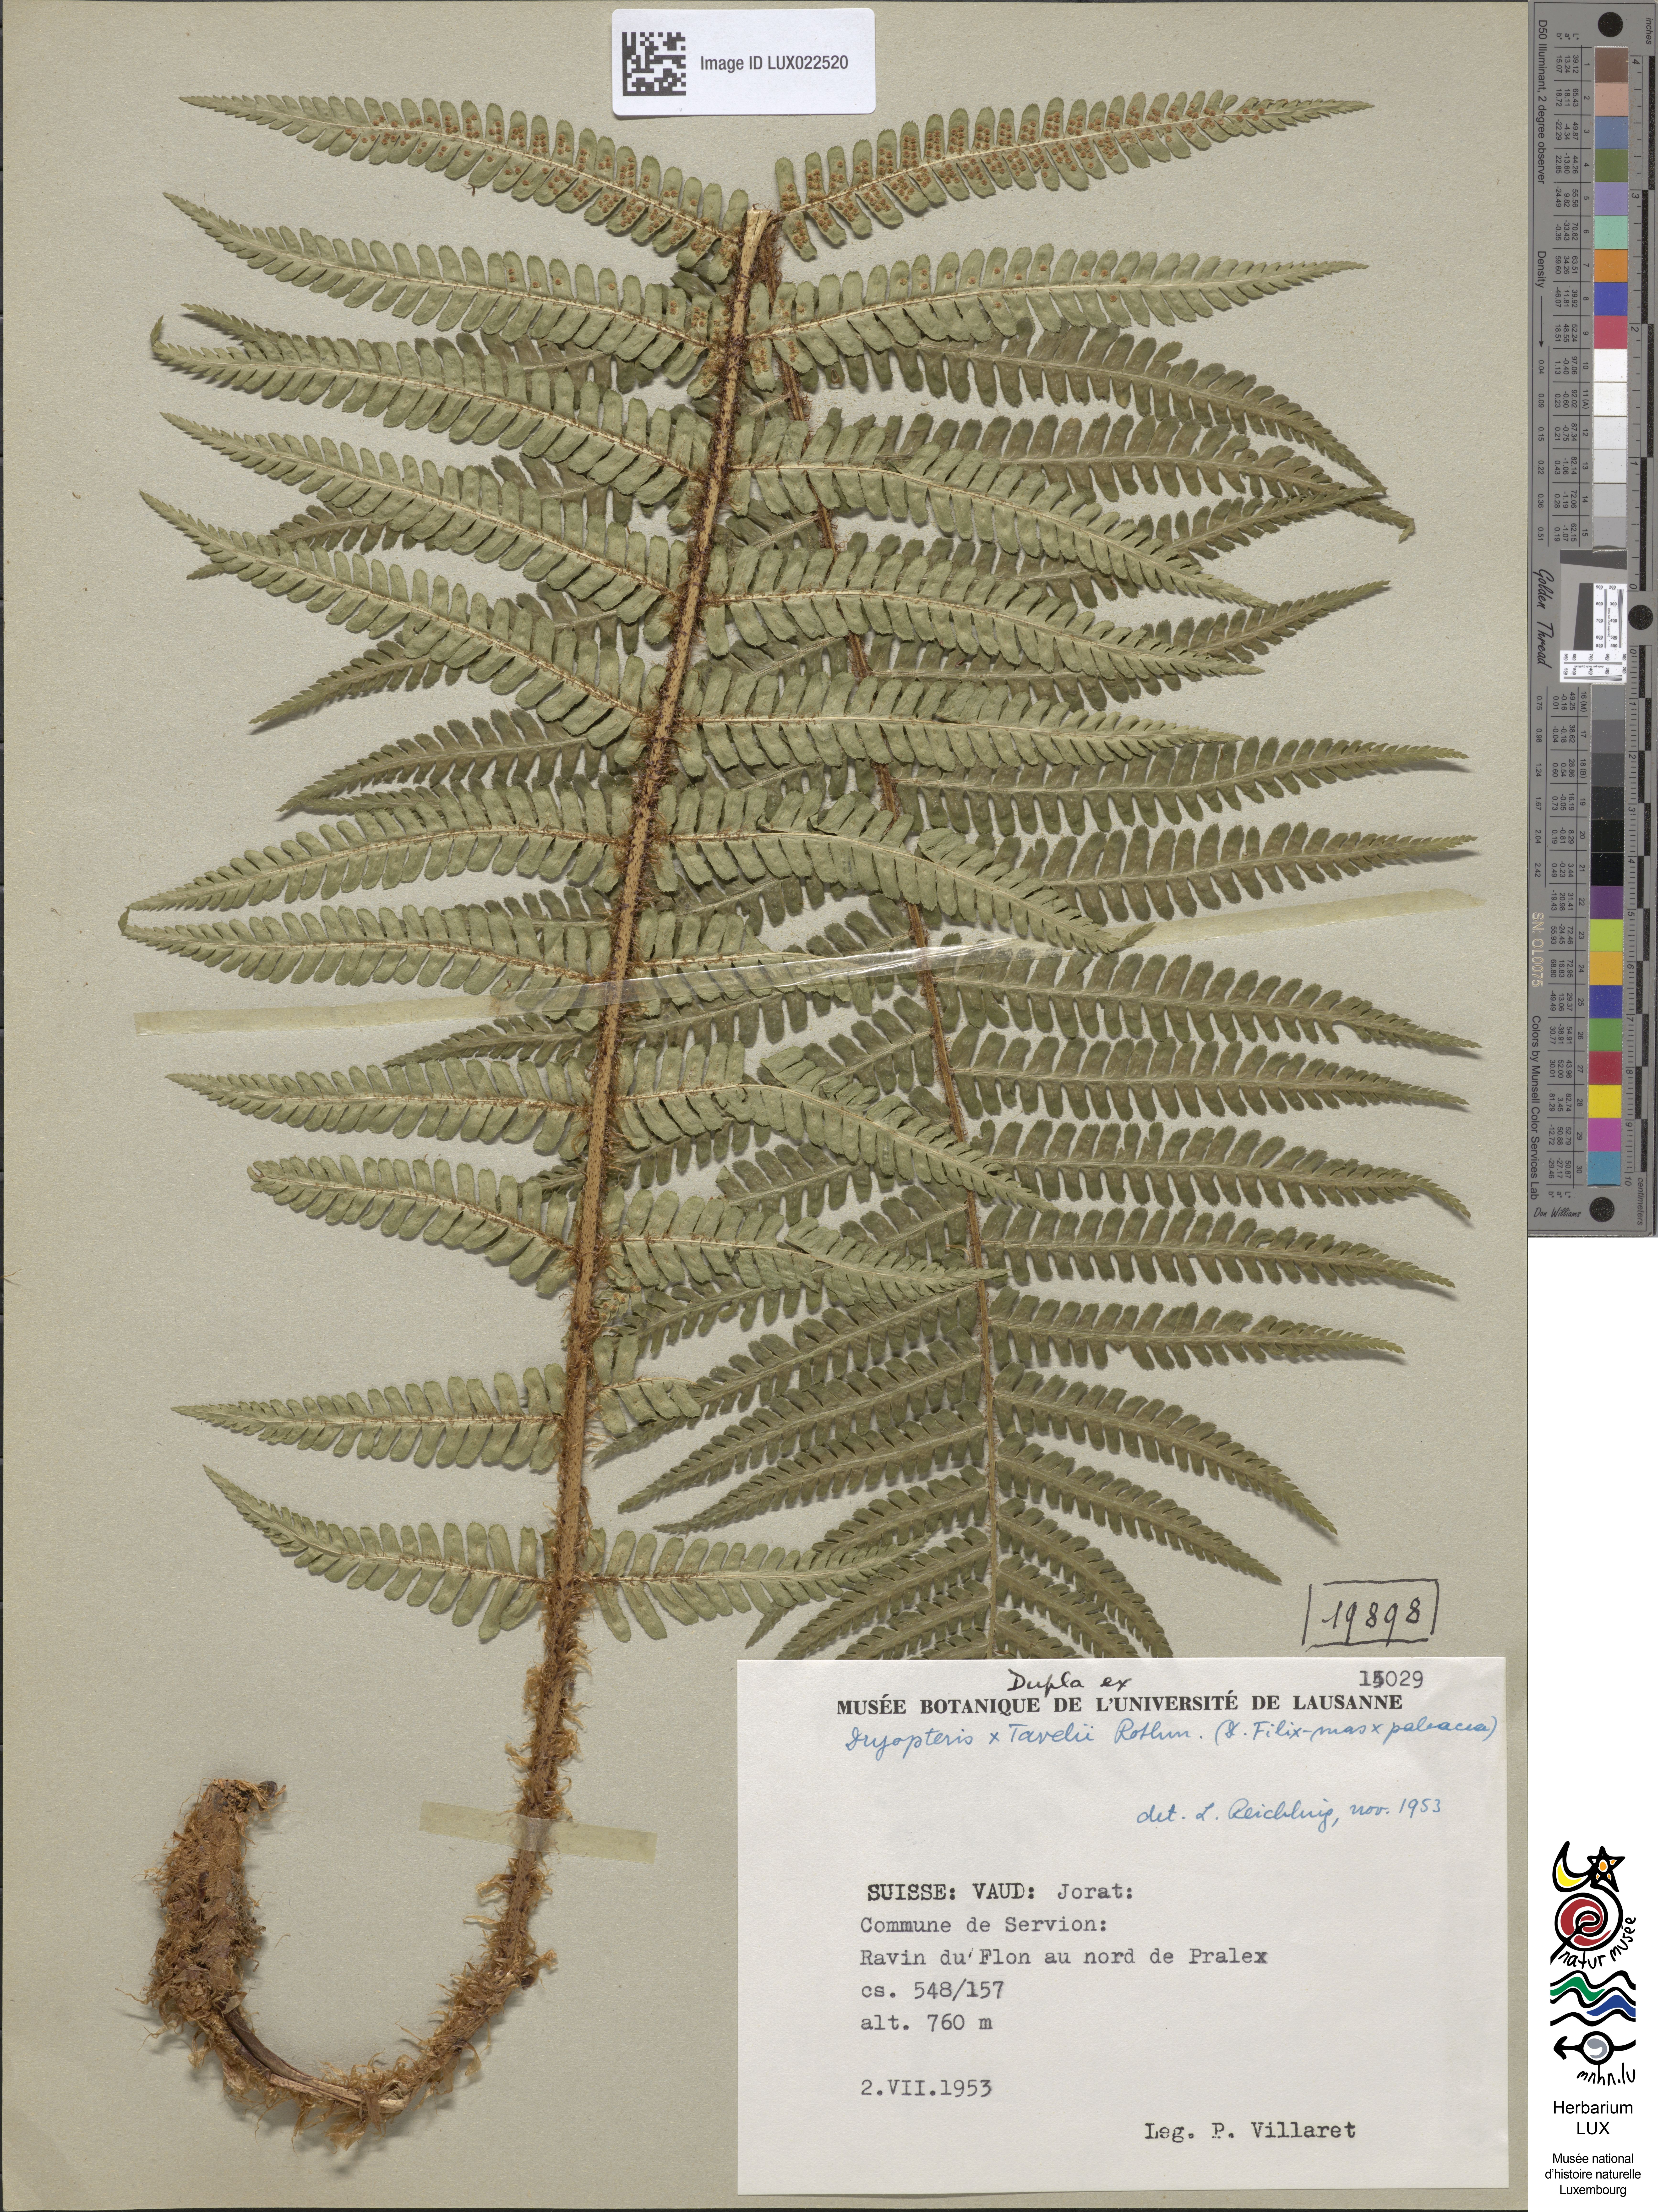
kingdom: Plantae
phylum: Tracheophyta
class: Polypodiopsida
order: Polypodiales
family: Dryopteridaceae
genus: Dryopteris
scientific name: Dryopteris borreri
